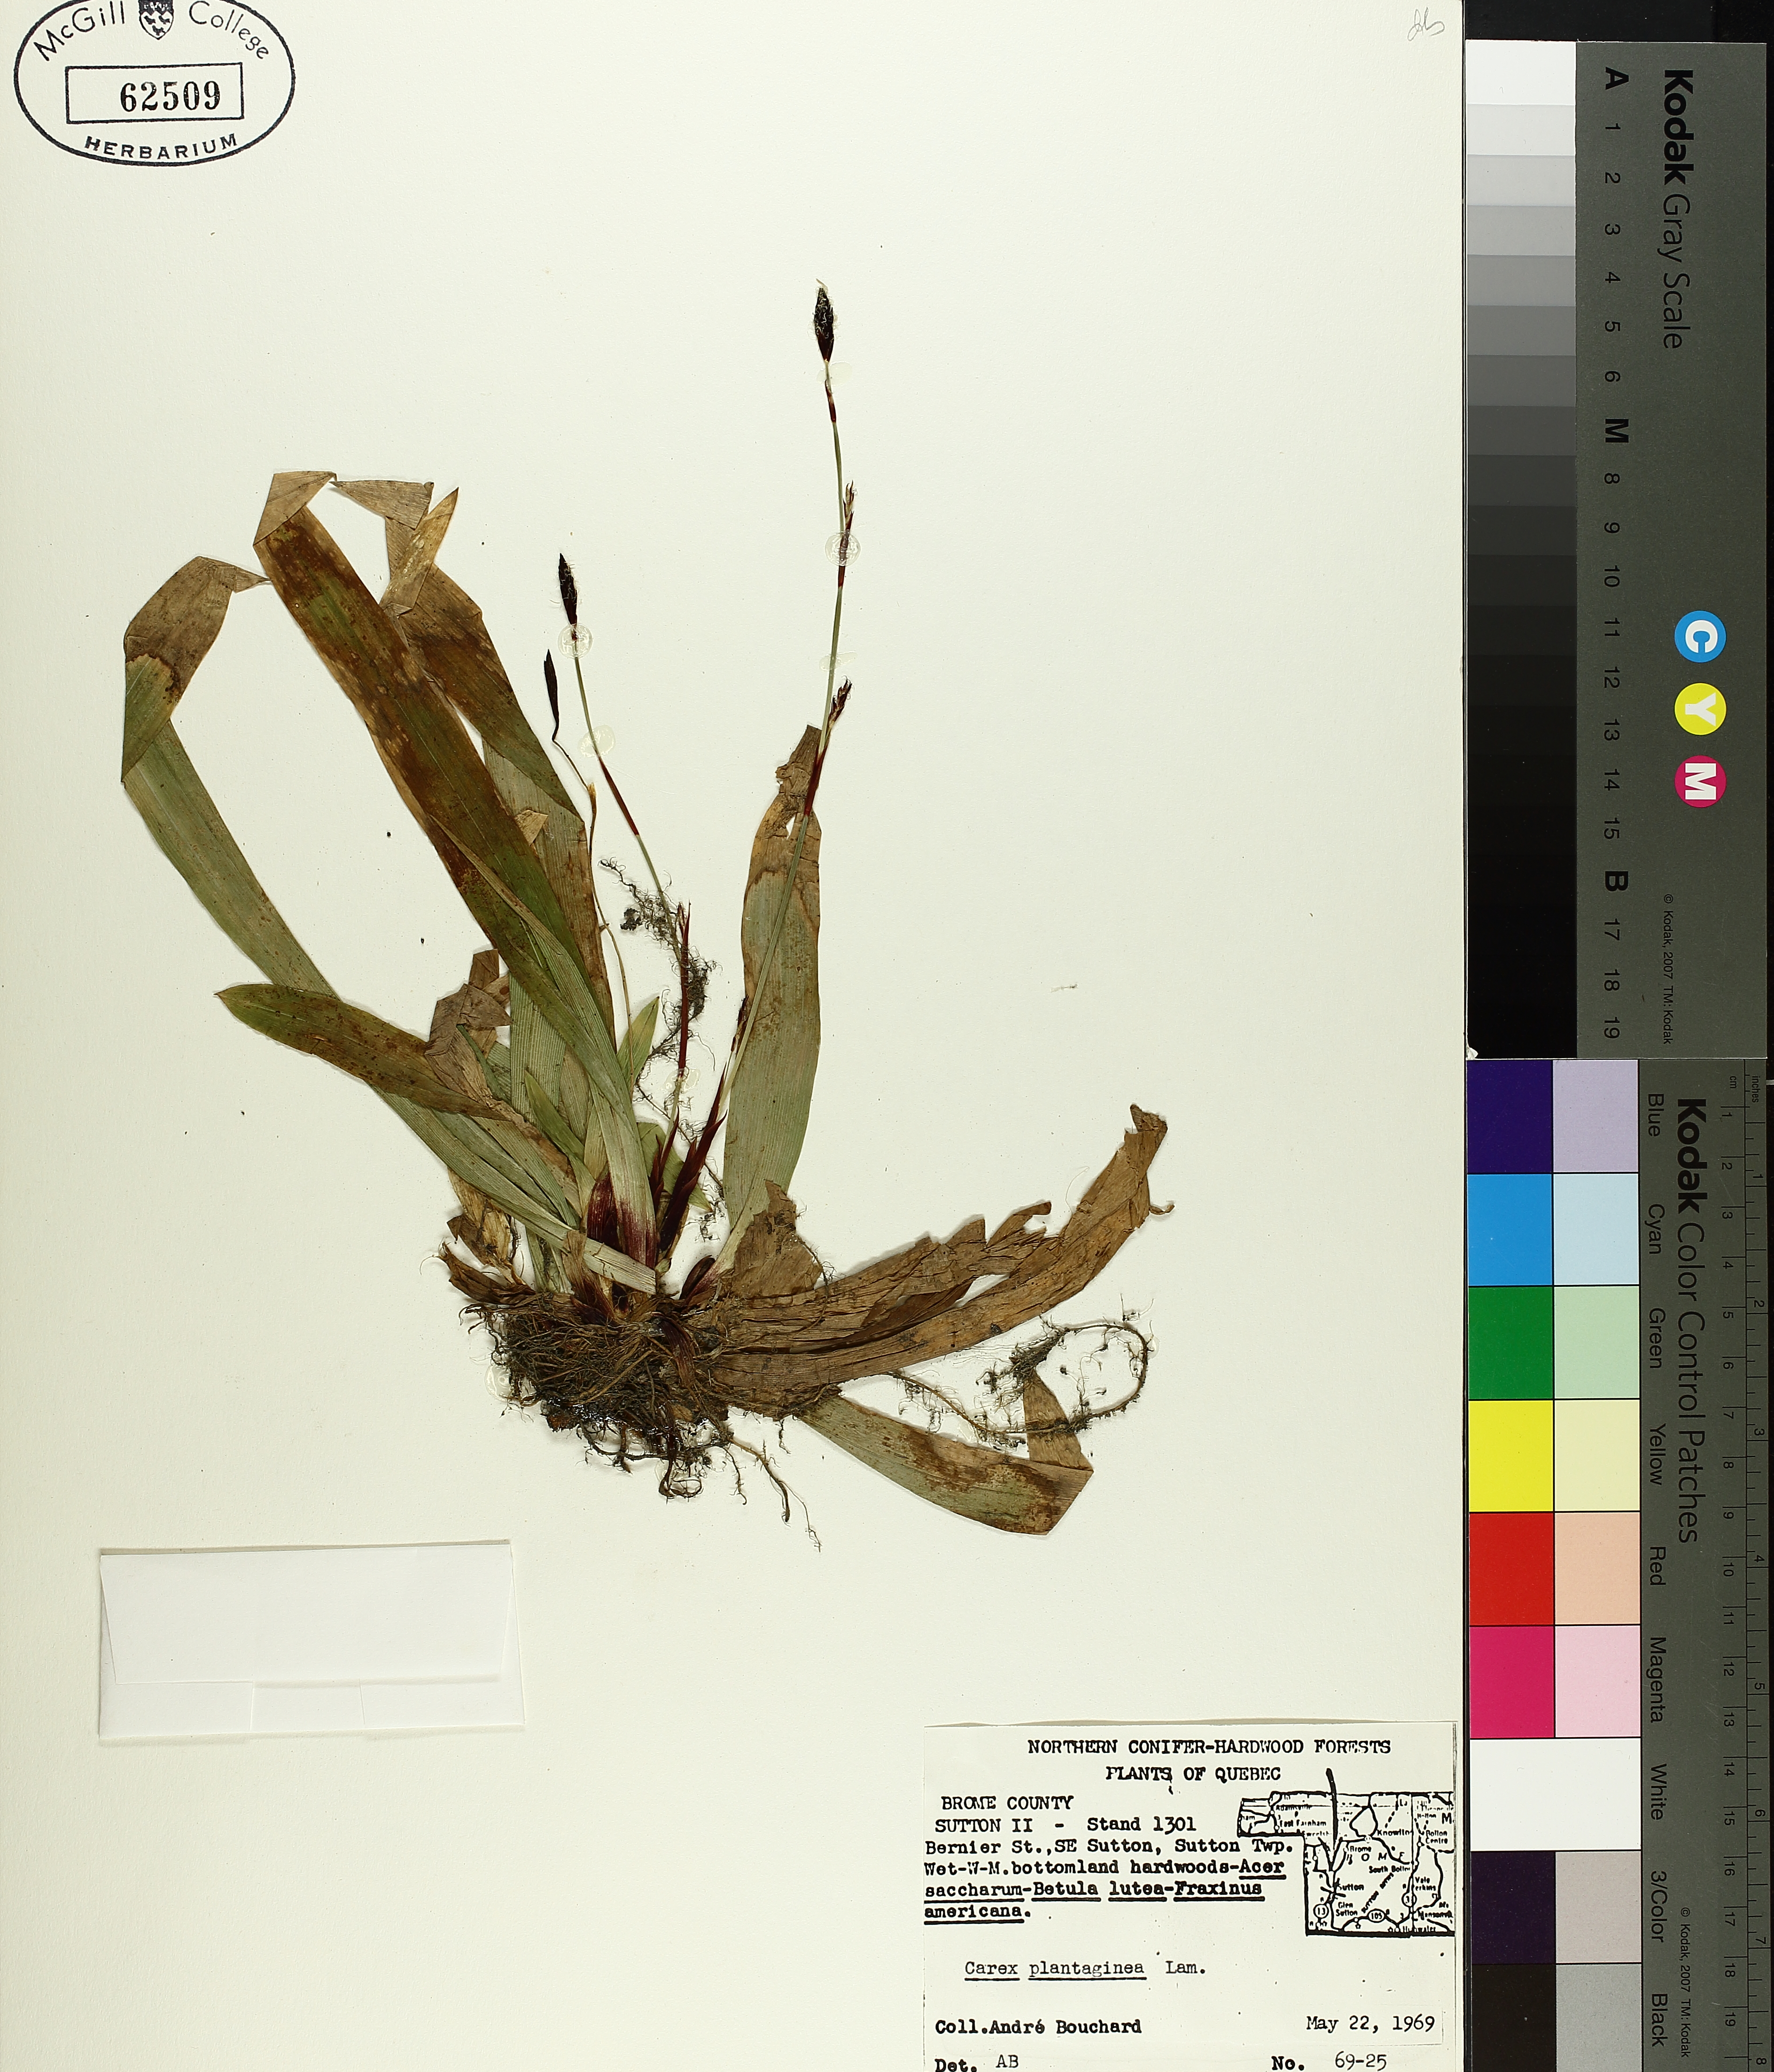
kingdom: Plantae
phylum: Tracheophyta
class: Liliopsida
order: Poales
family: Cyperaceae
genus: Carex
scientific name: Carex plantaginea
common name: Plantain-leaved sedge
